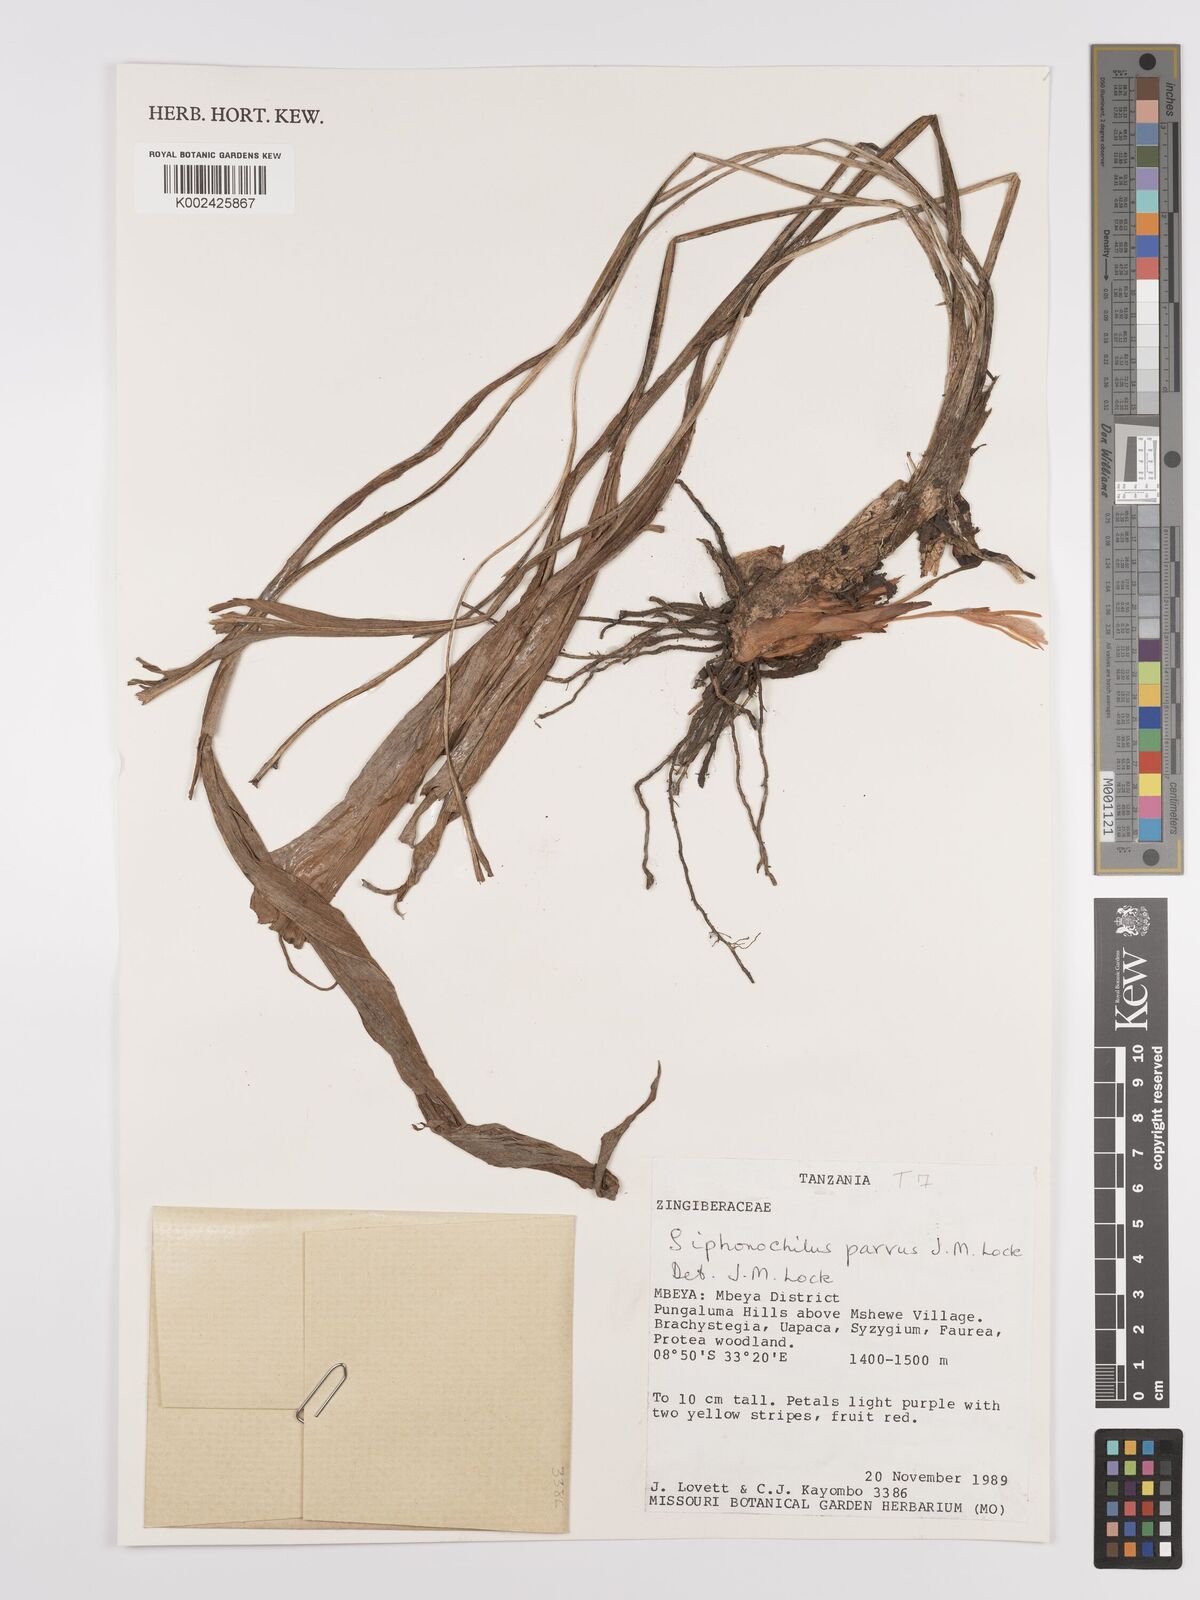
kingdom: Plantae
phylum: Tracheophyta
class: Liliopsida
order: Zingiberales
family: Zingiberaceae
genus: Siphonochilus
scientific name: Siphonochilus parvus
